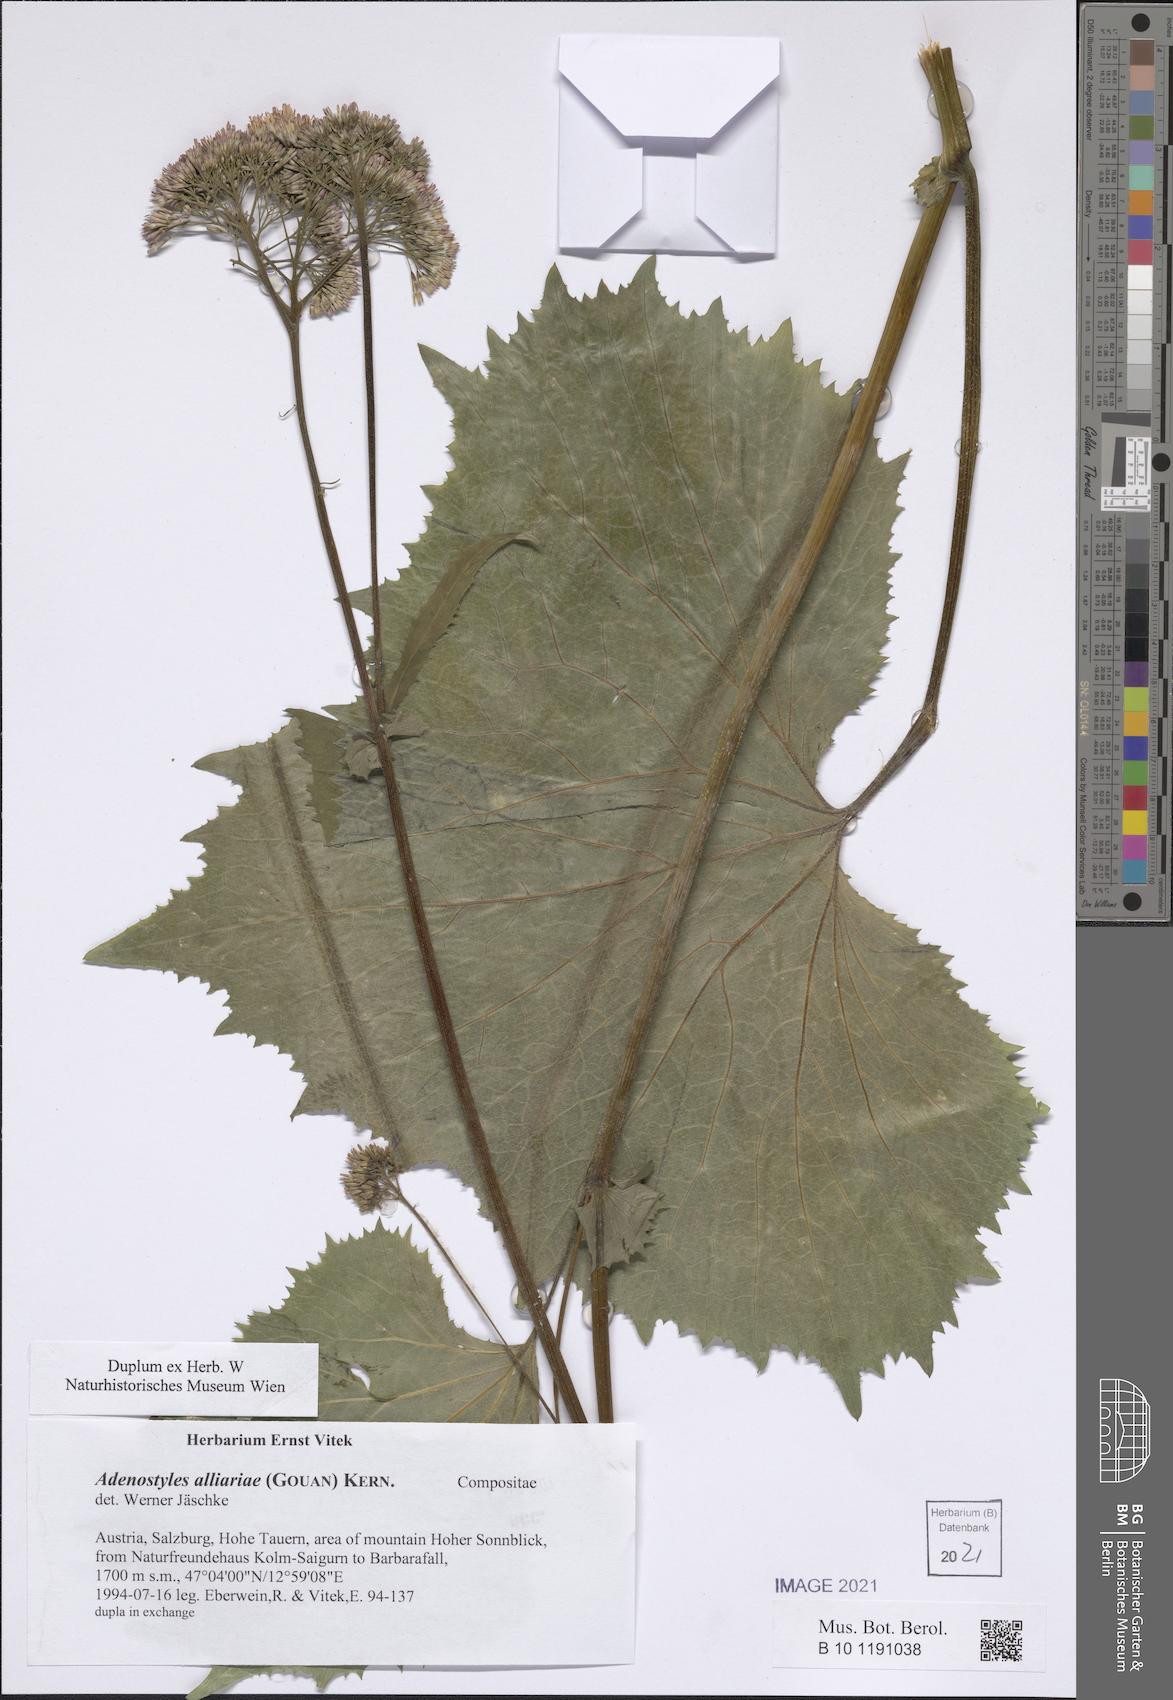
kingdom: Plantae
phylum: Tracheophyta
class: Magnoliopsida
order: Asterales
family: Asteraceae
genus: Adenostyles
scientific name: Adenostyles alliariae
